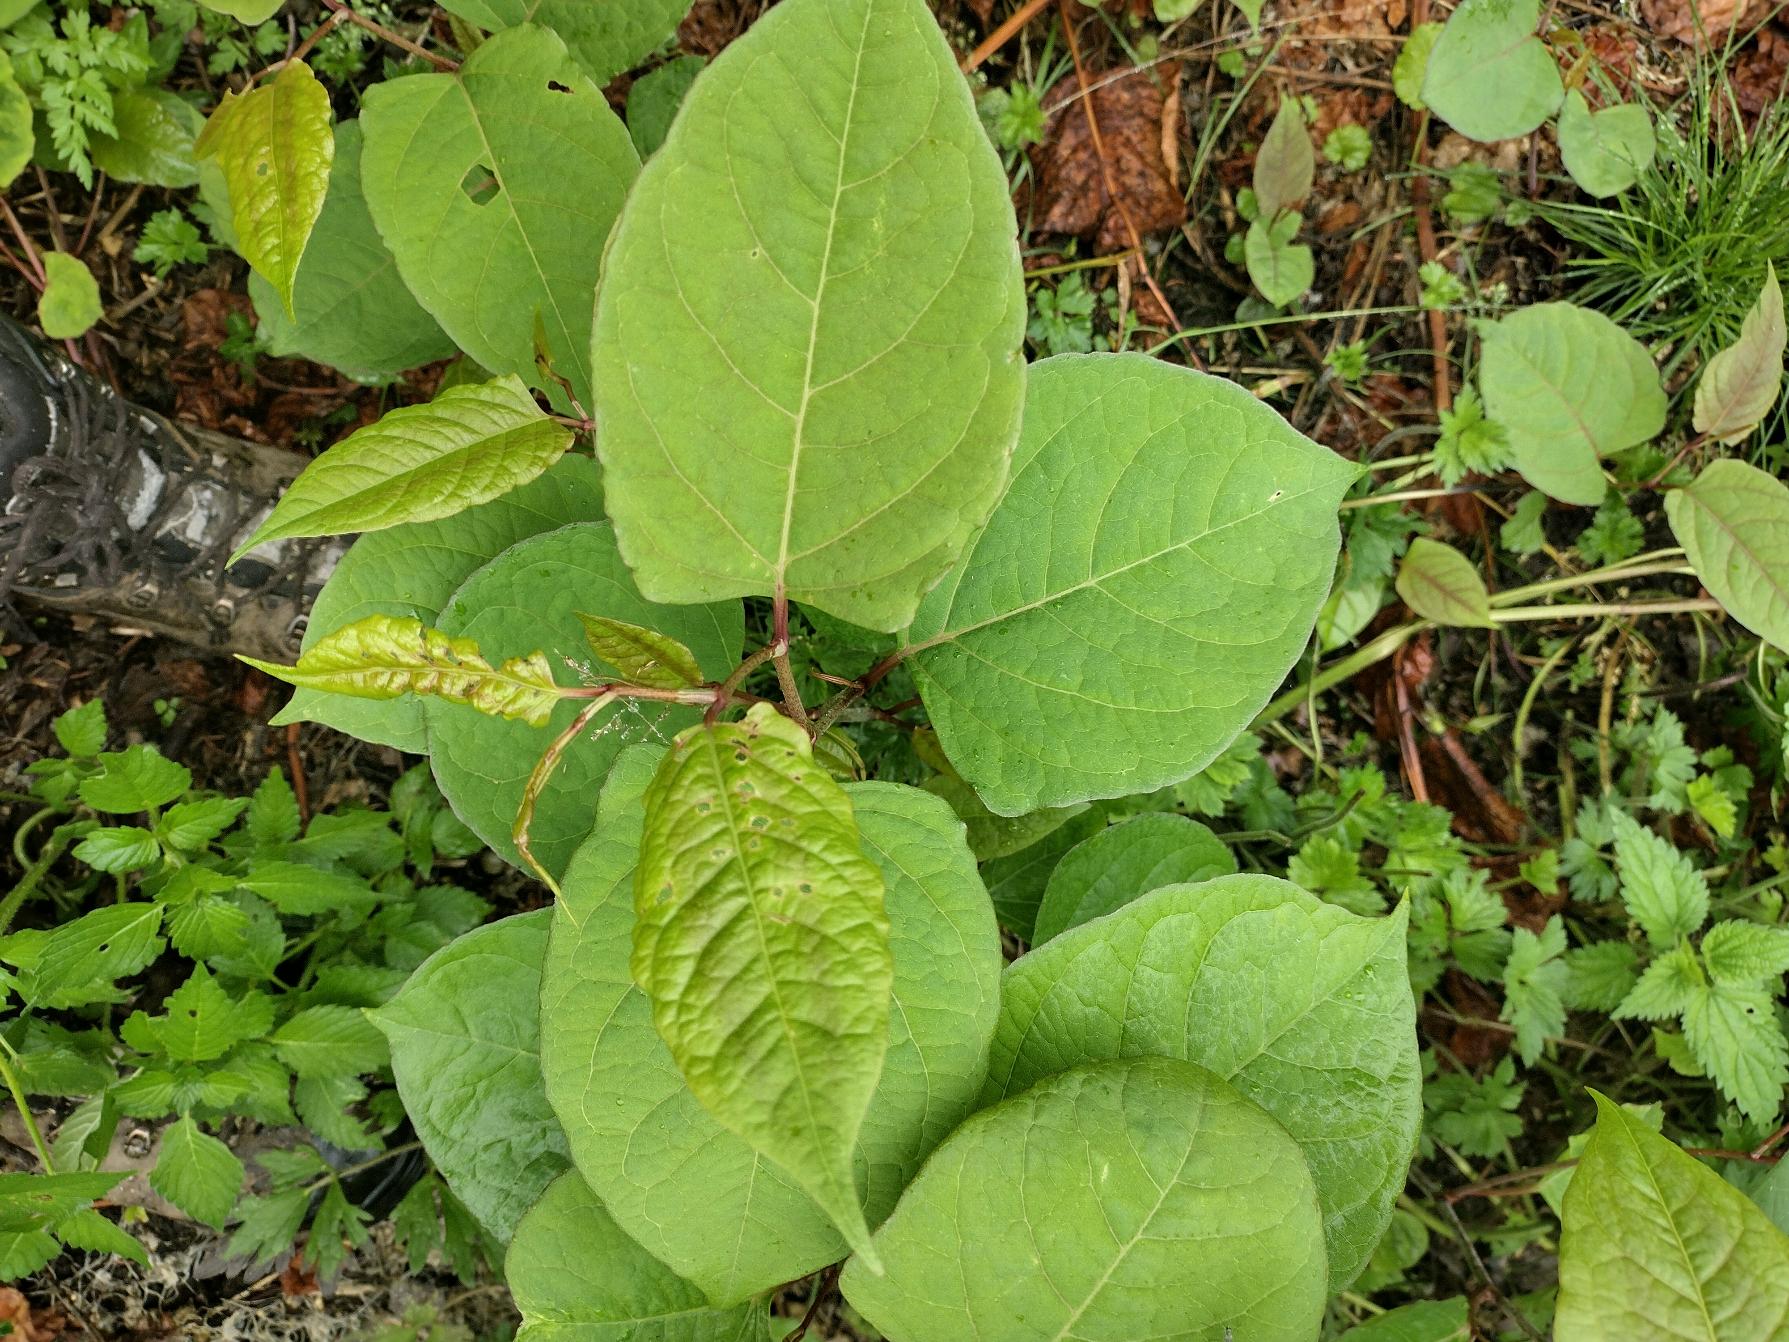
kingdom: Plantae
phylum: Tracheophyta
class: Magnoliopsida
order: Caryophyllales
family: Polygonaceae
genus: Reynoutria
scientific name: Reynoutria japonica
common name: Japan-pileurt
